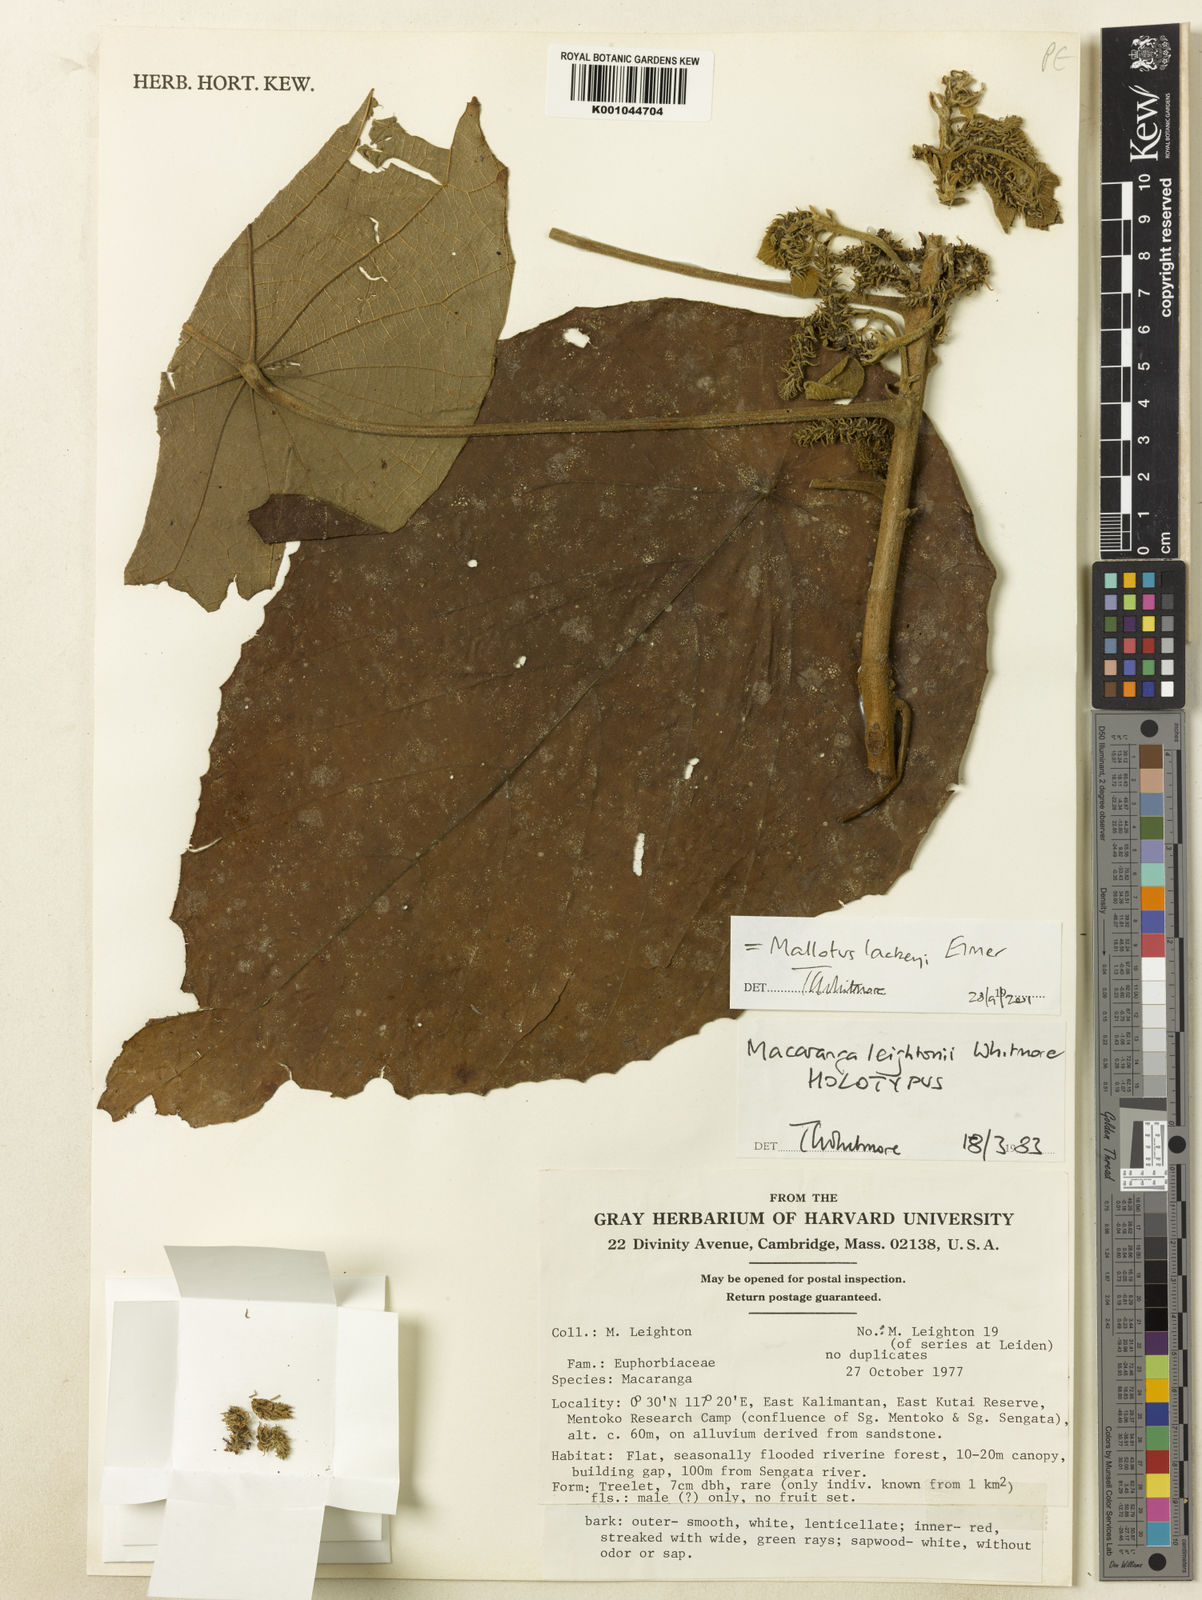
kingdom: Plantae
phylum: Tracheophyta
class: Magnoliopsida
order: Malpighiales
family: Euphorbiaceae
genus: Mallotus
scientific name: Mallotus lackeyi
